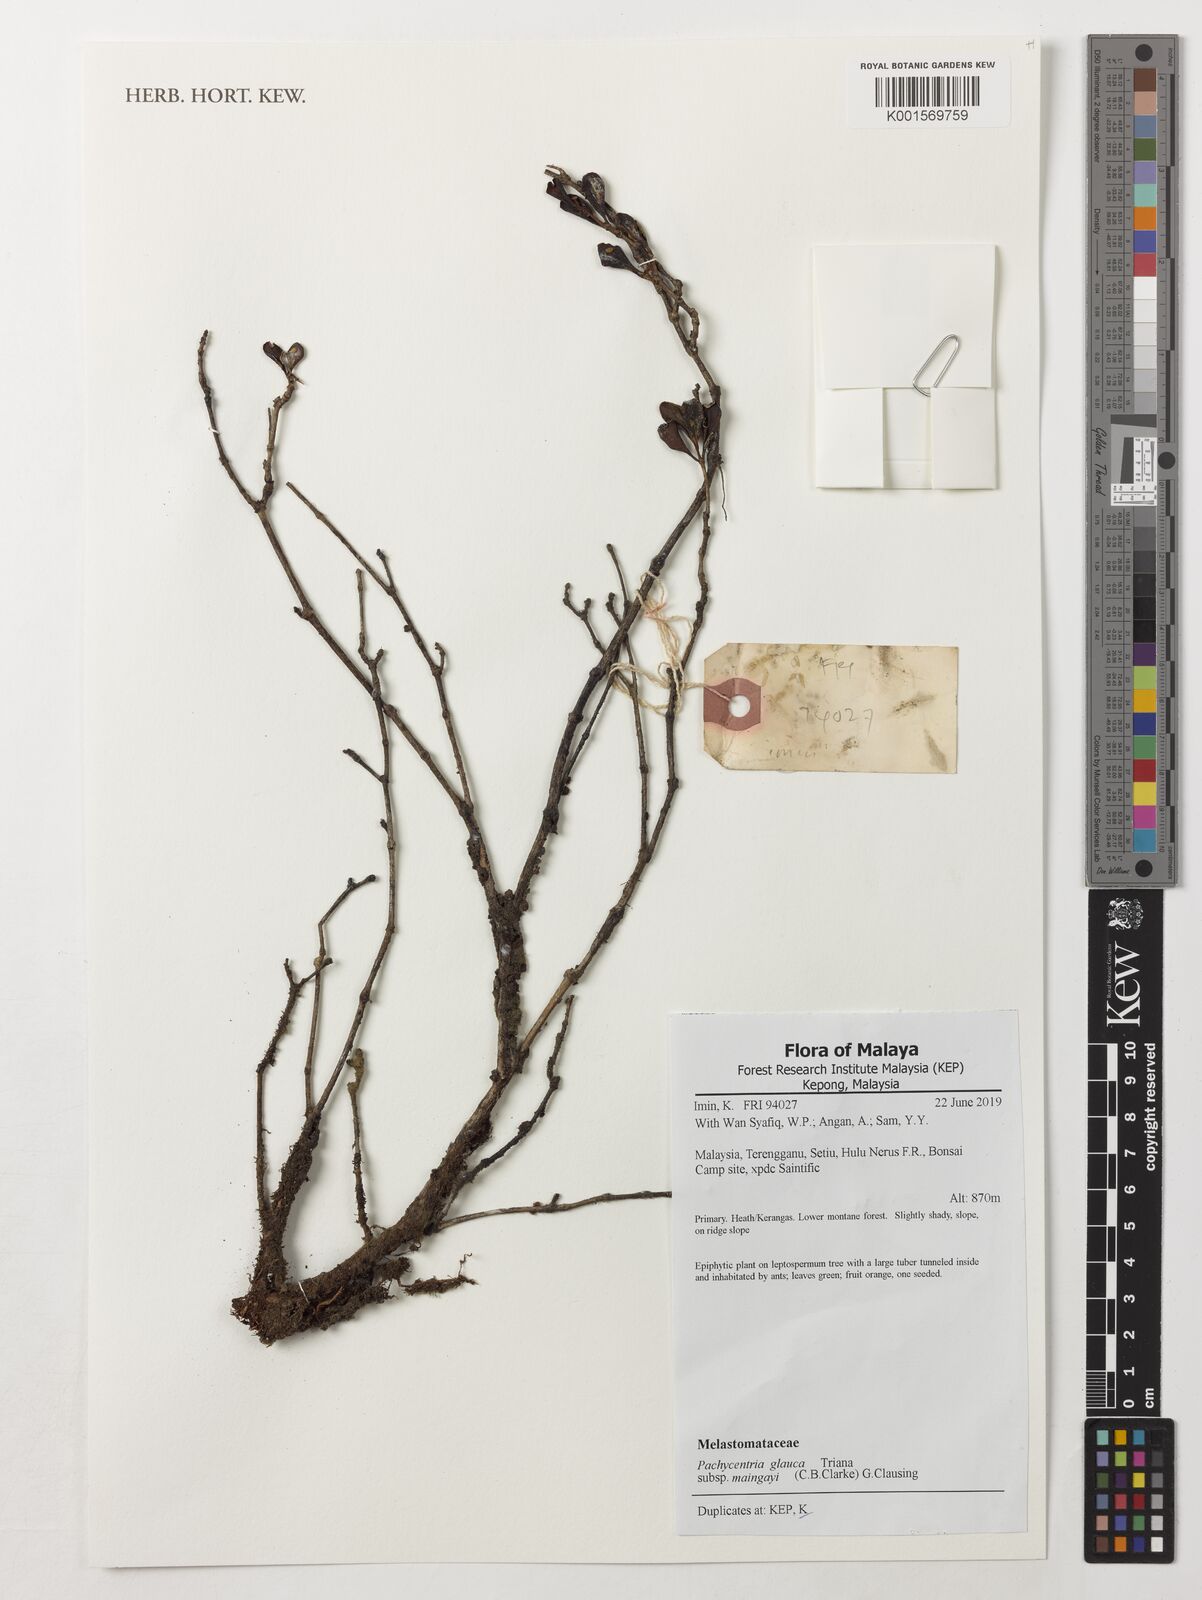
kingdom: Plantae
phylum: Tracheophyta
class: Magnoliopsida
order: Myrtales
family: Melastomataceae
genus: Pachycentria
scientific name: Pachycentria glauca
